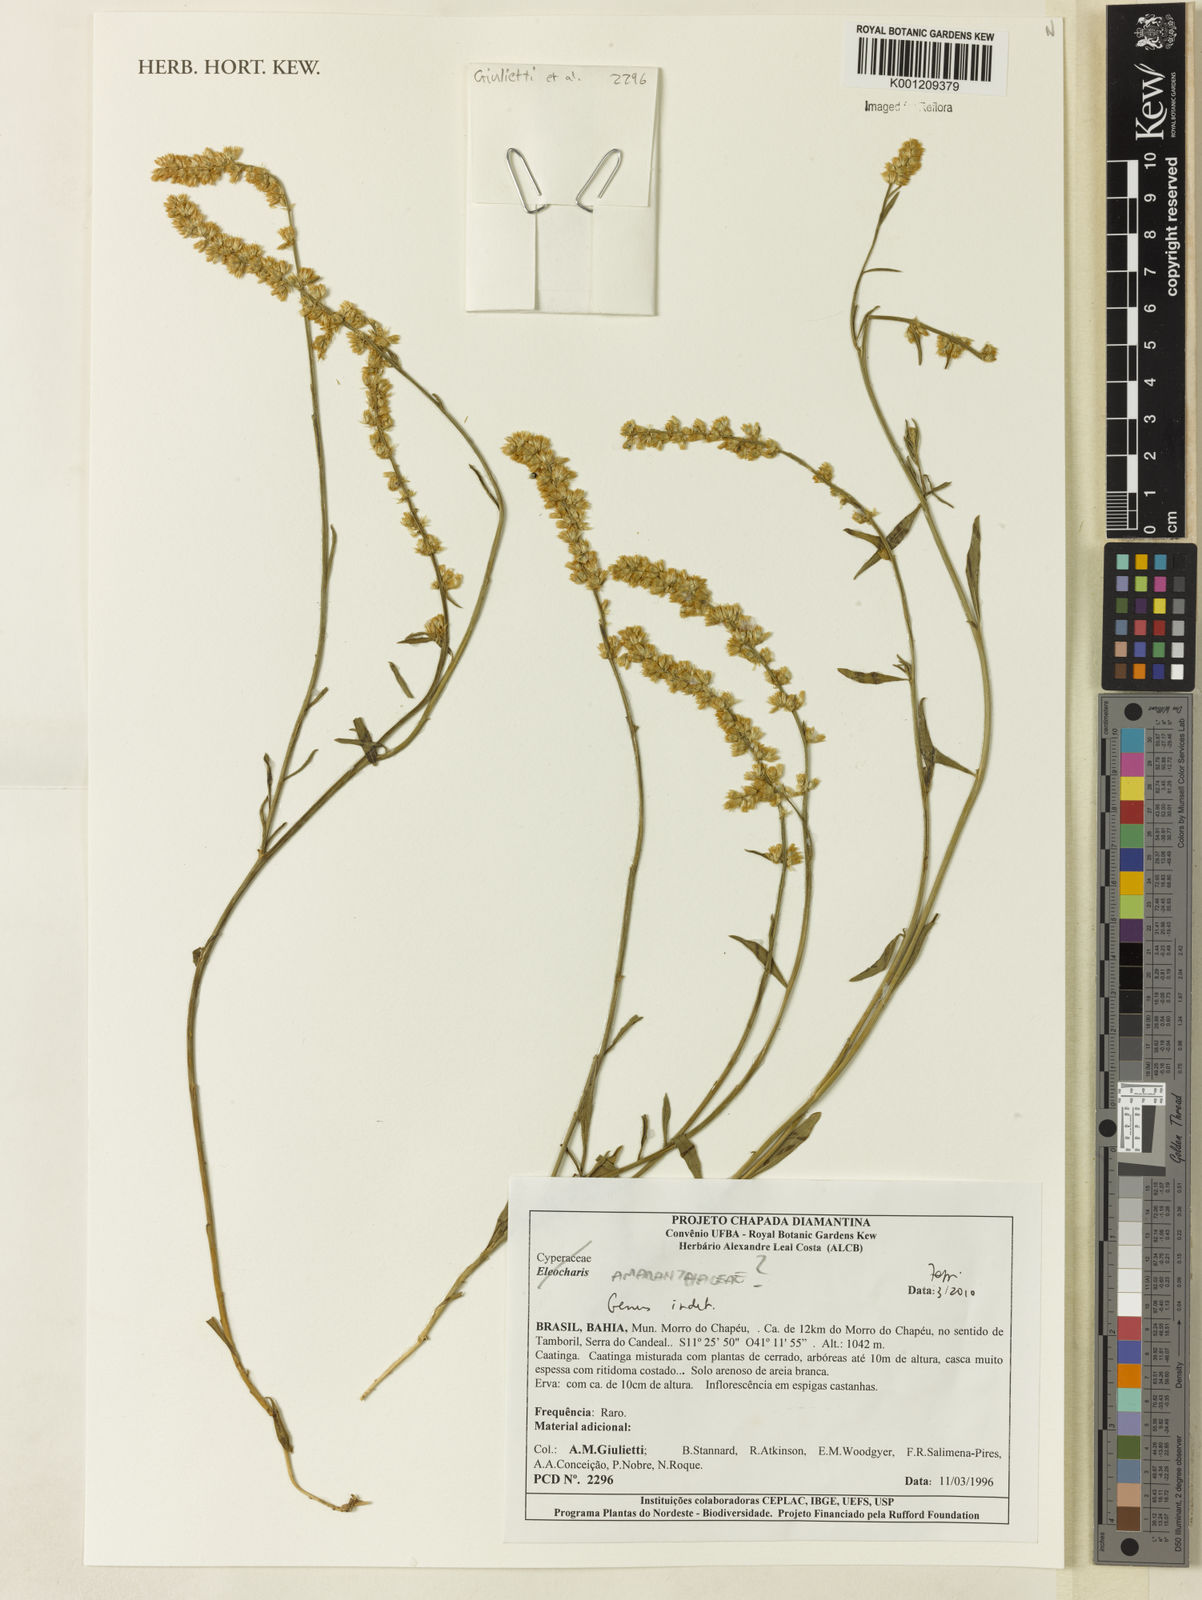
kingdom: Plantae
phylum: Tracheophyta
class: Magnoliopsida
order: Caryophyllales
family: Amaranthaceae
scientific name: Amaranthaceae
